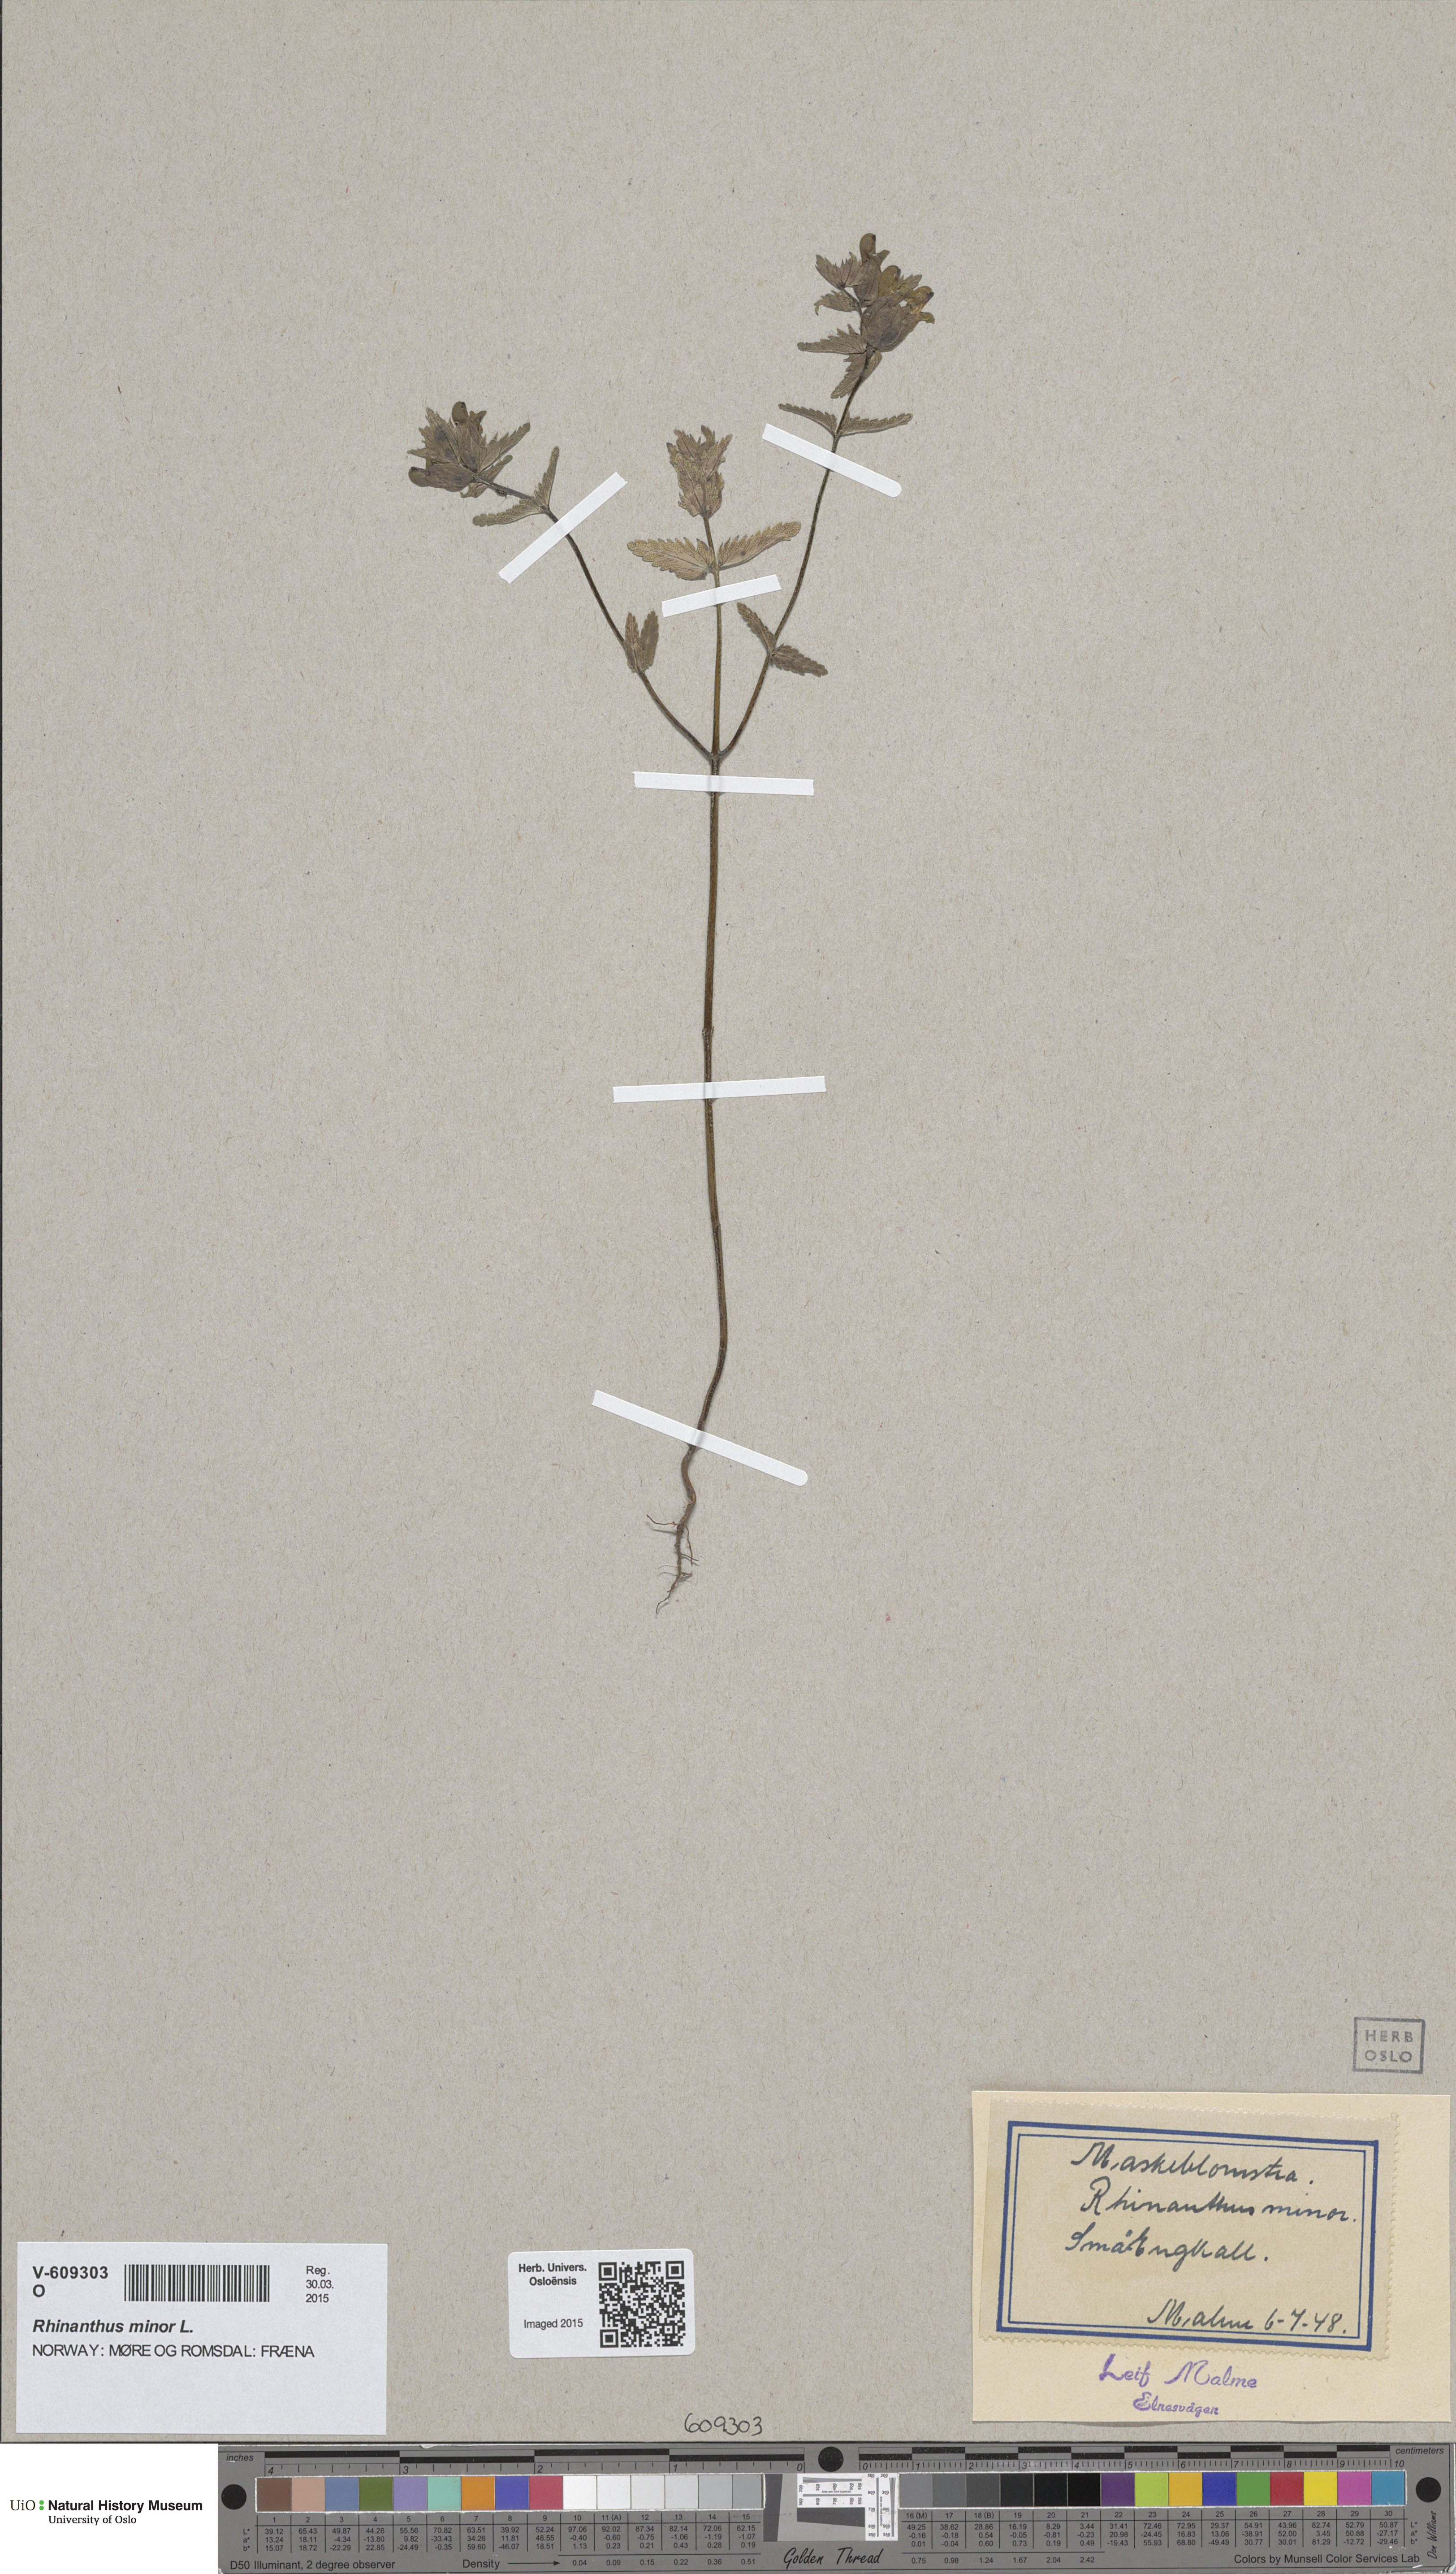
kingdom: Plantae
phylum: Tracheophyta
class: Magnoliopsida
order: Lamiales
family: Orobanchaceae
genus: Rhinanthus
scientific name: Rhinanthus minor
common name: Yellow-rattle
